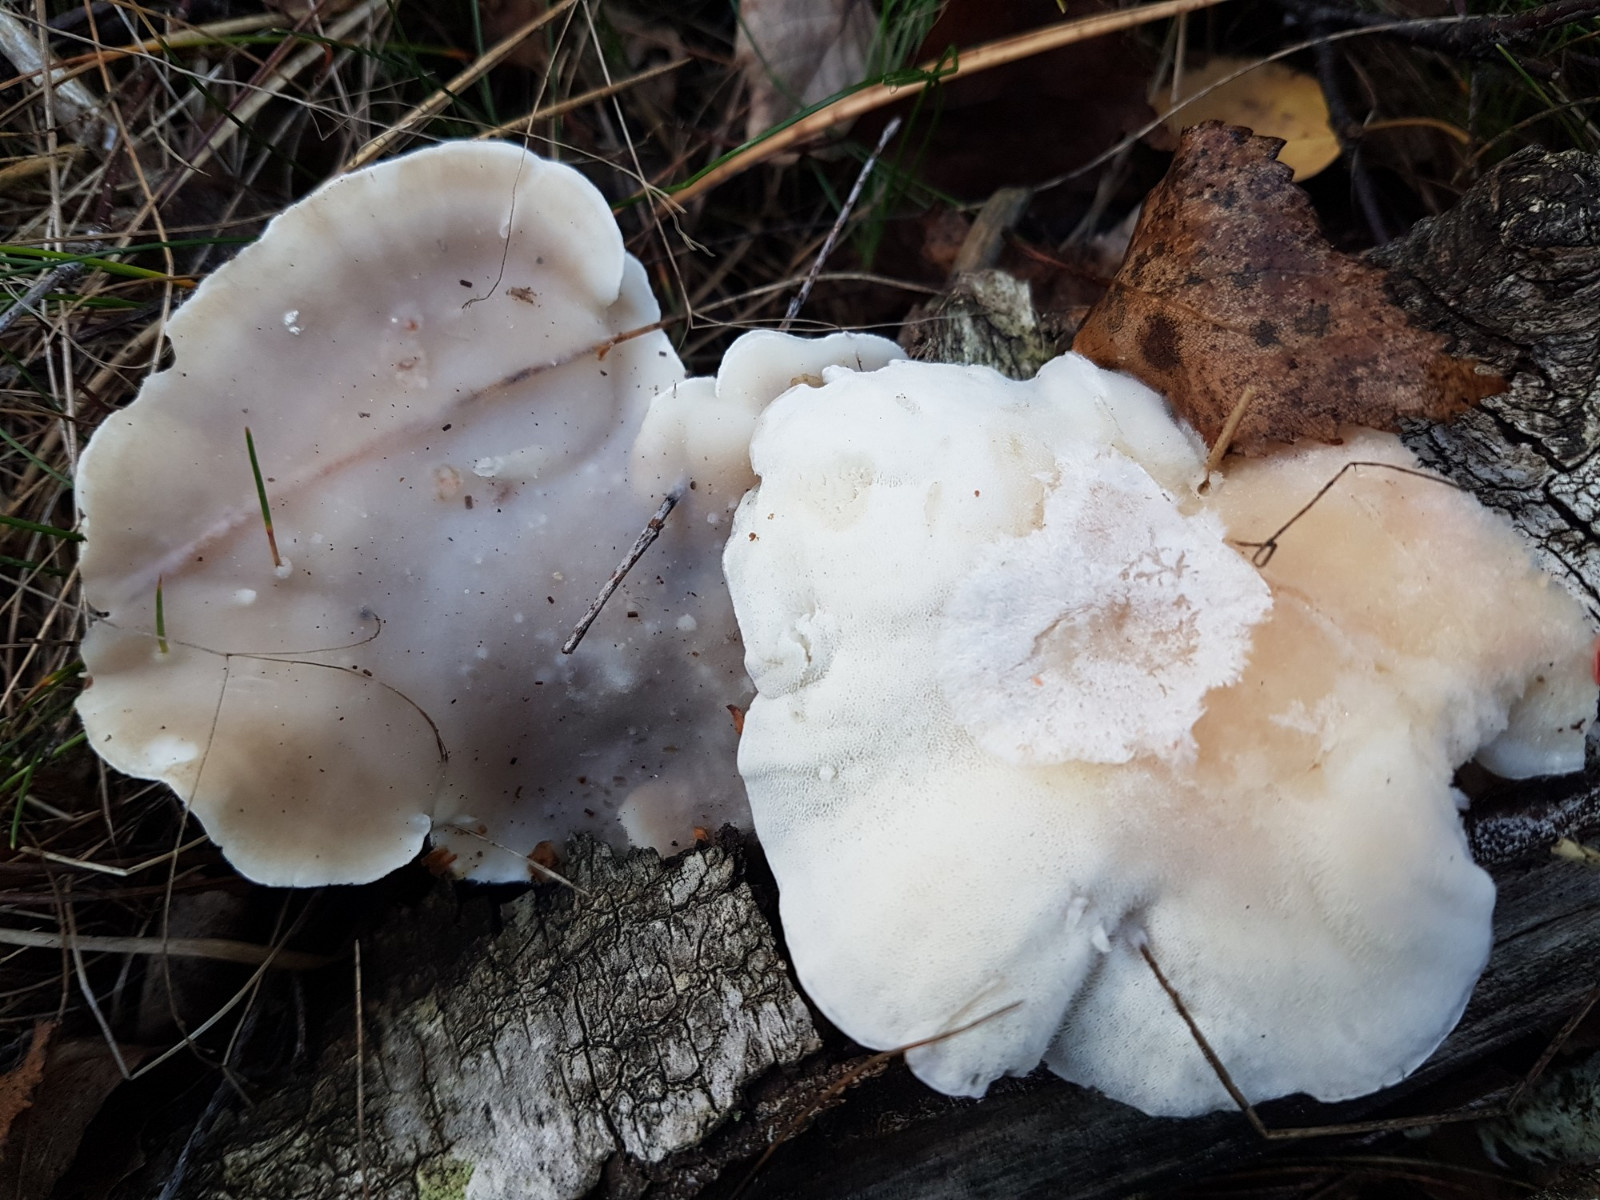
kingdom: Fungi
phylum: Basidiomycota
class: Agaricomycetes
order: Polyporales
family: Incrustoporiaceae
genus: Tyromyces
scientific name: Tyromyces chioneus
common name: stor blødporesvamp
